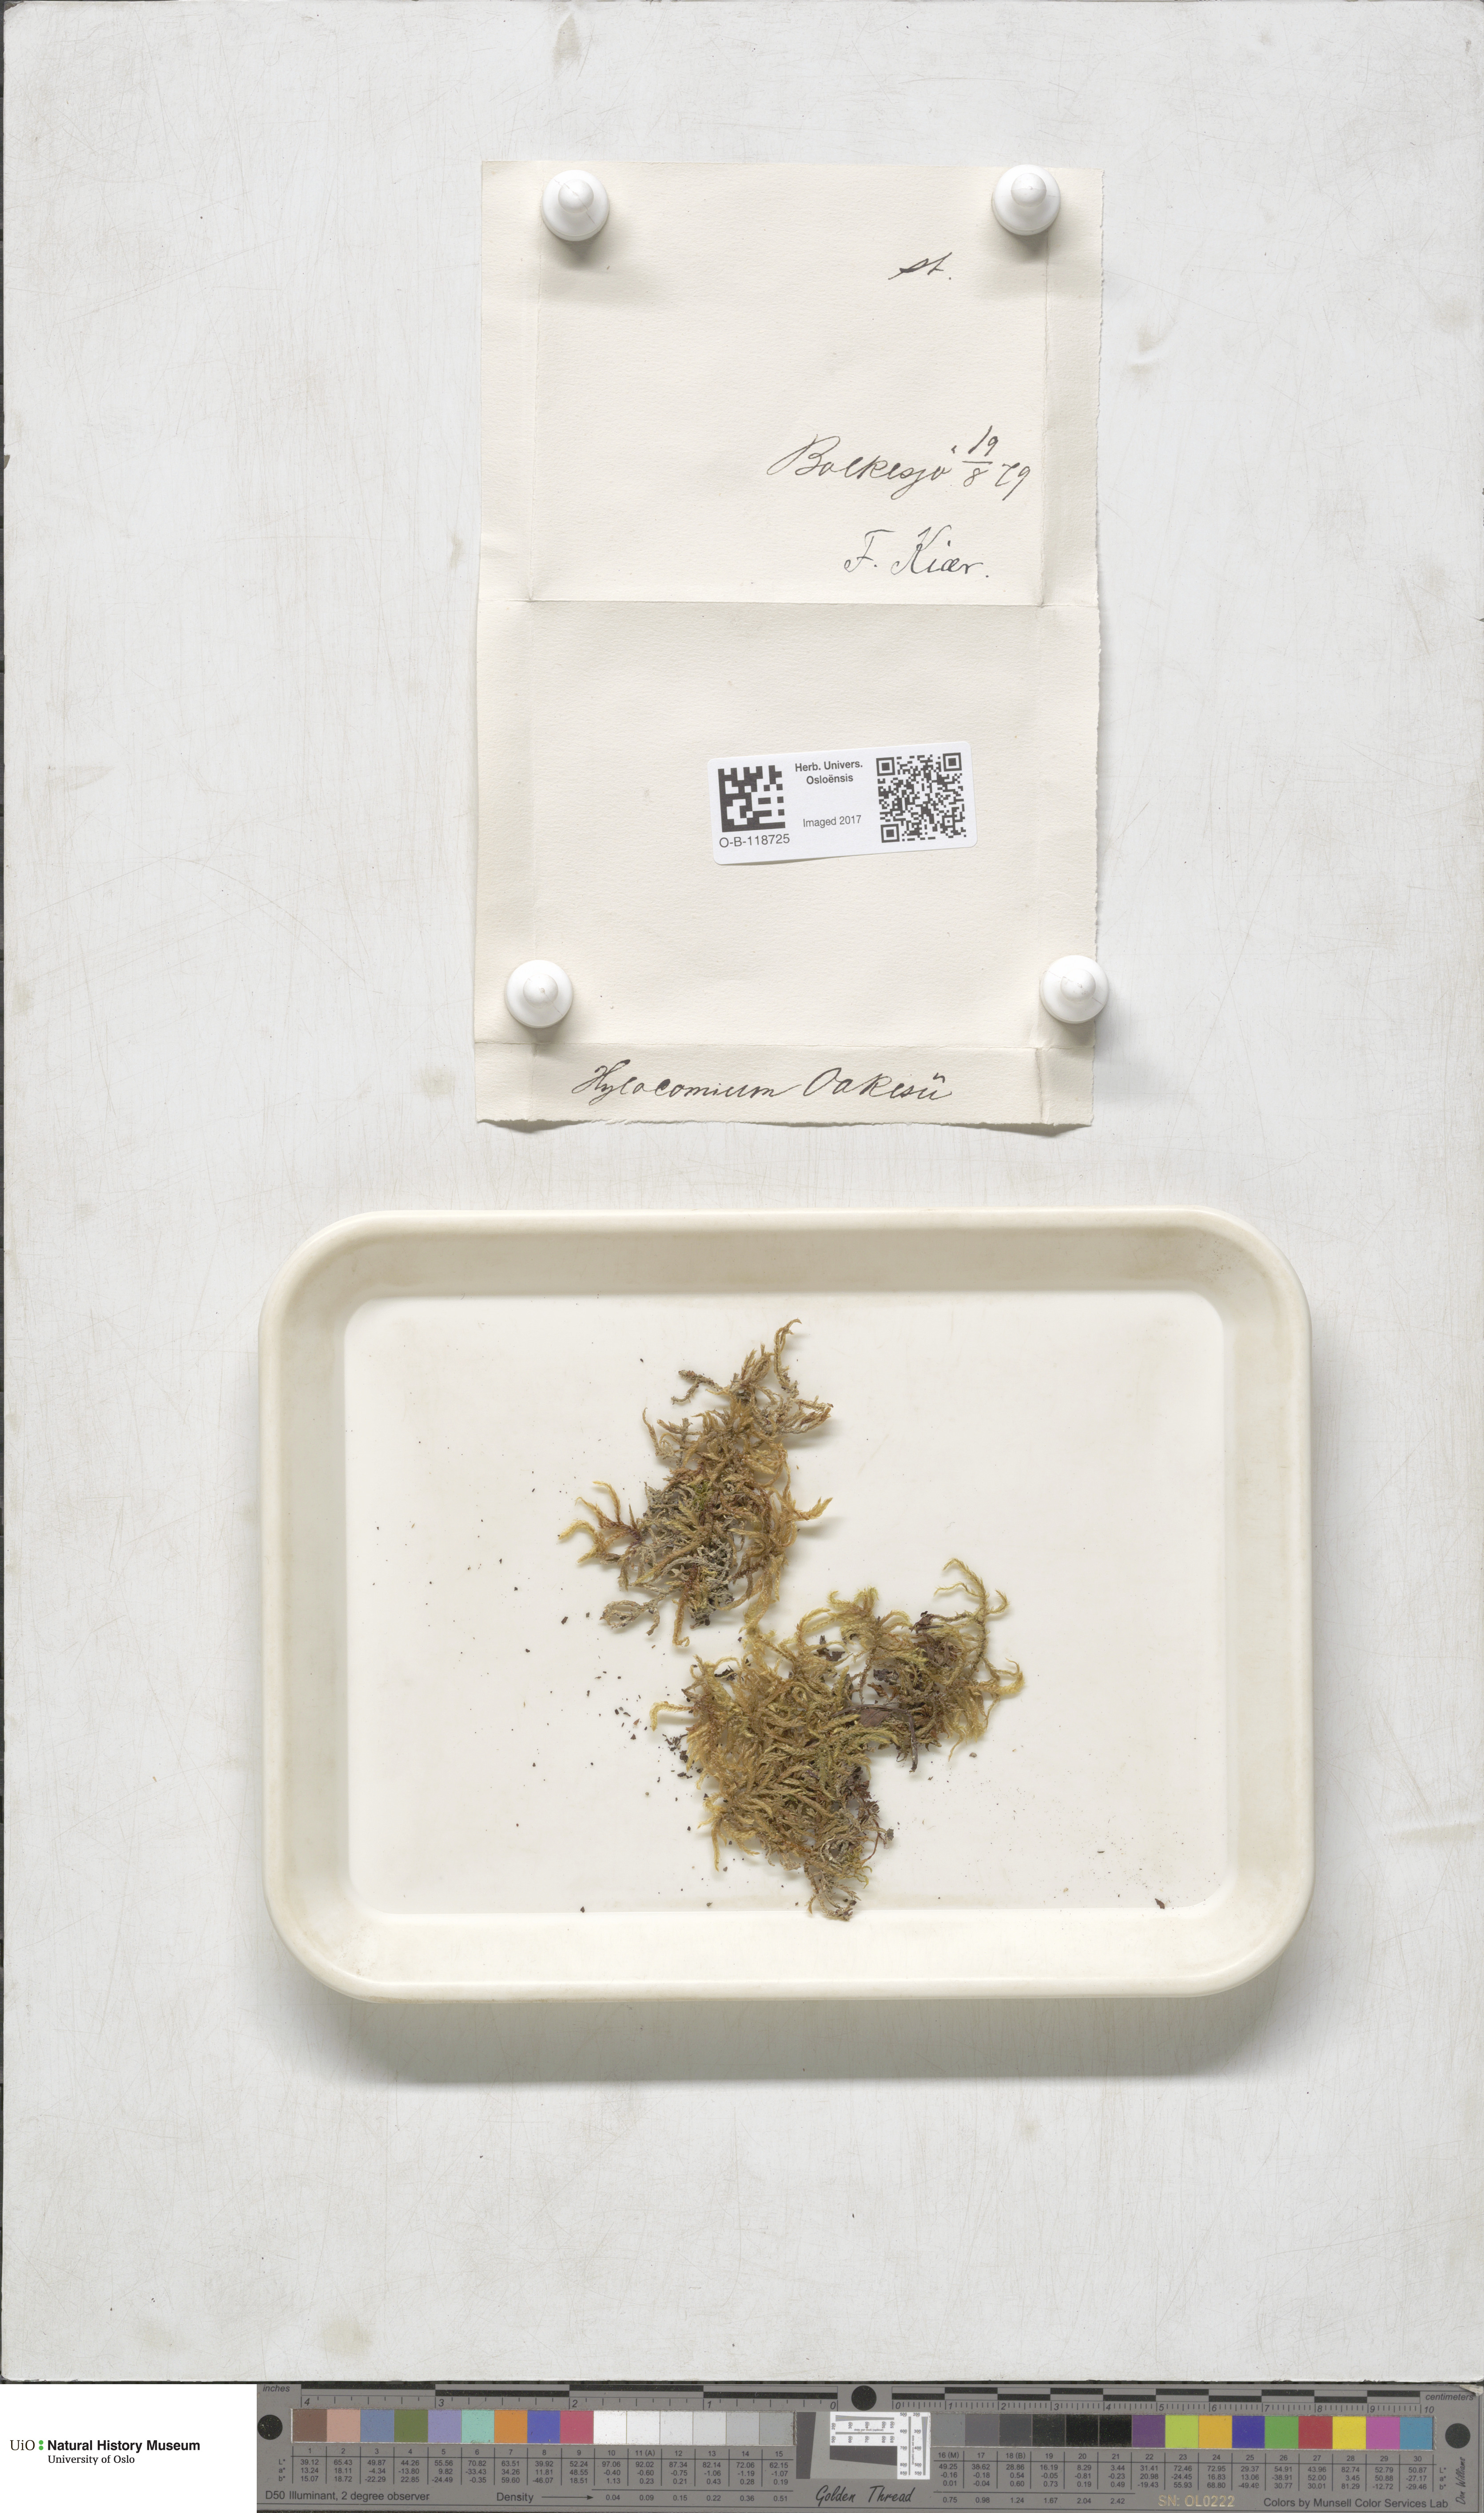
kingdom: Plantae
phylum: Bryophyta
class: Bryopsida
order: Hypnales
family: Hylocomiaceae
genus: Hylocomiastrum
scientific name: Hylocomiastrum pyrenaicum
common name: Oake s wood moss
